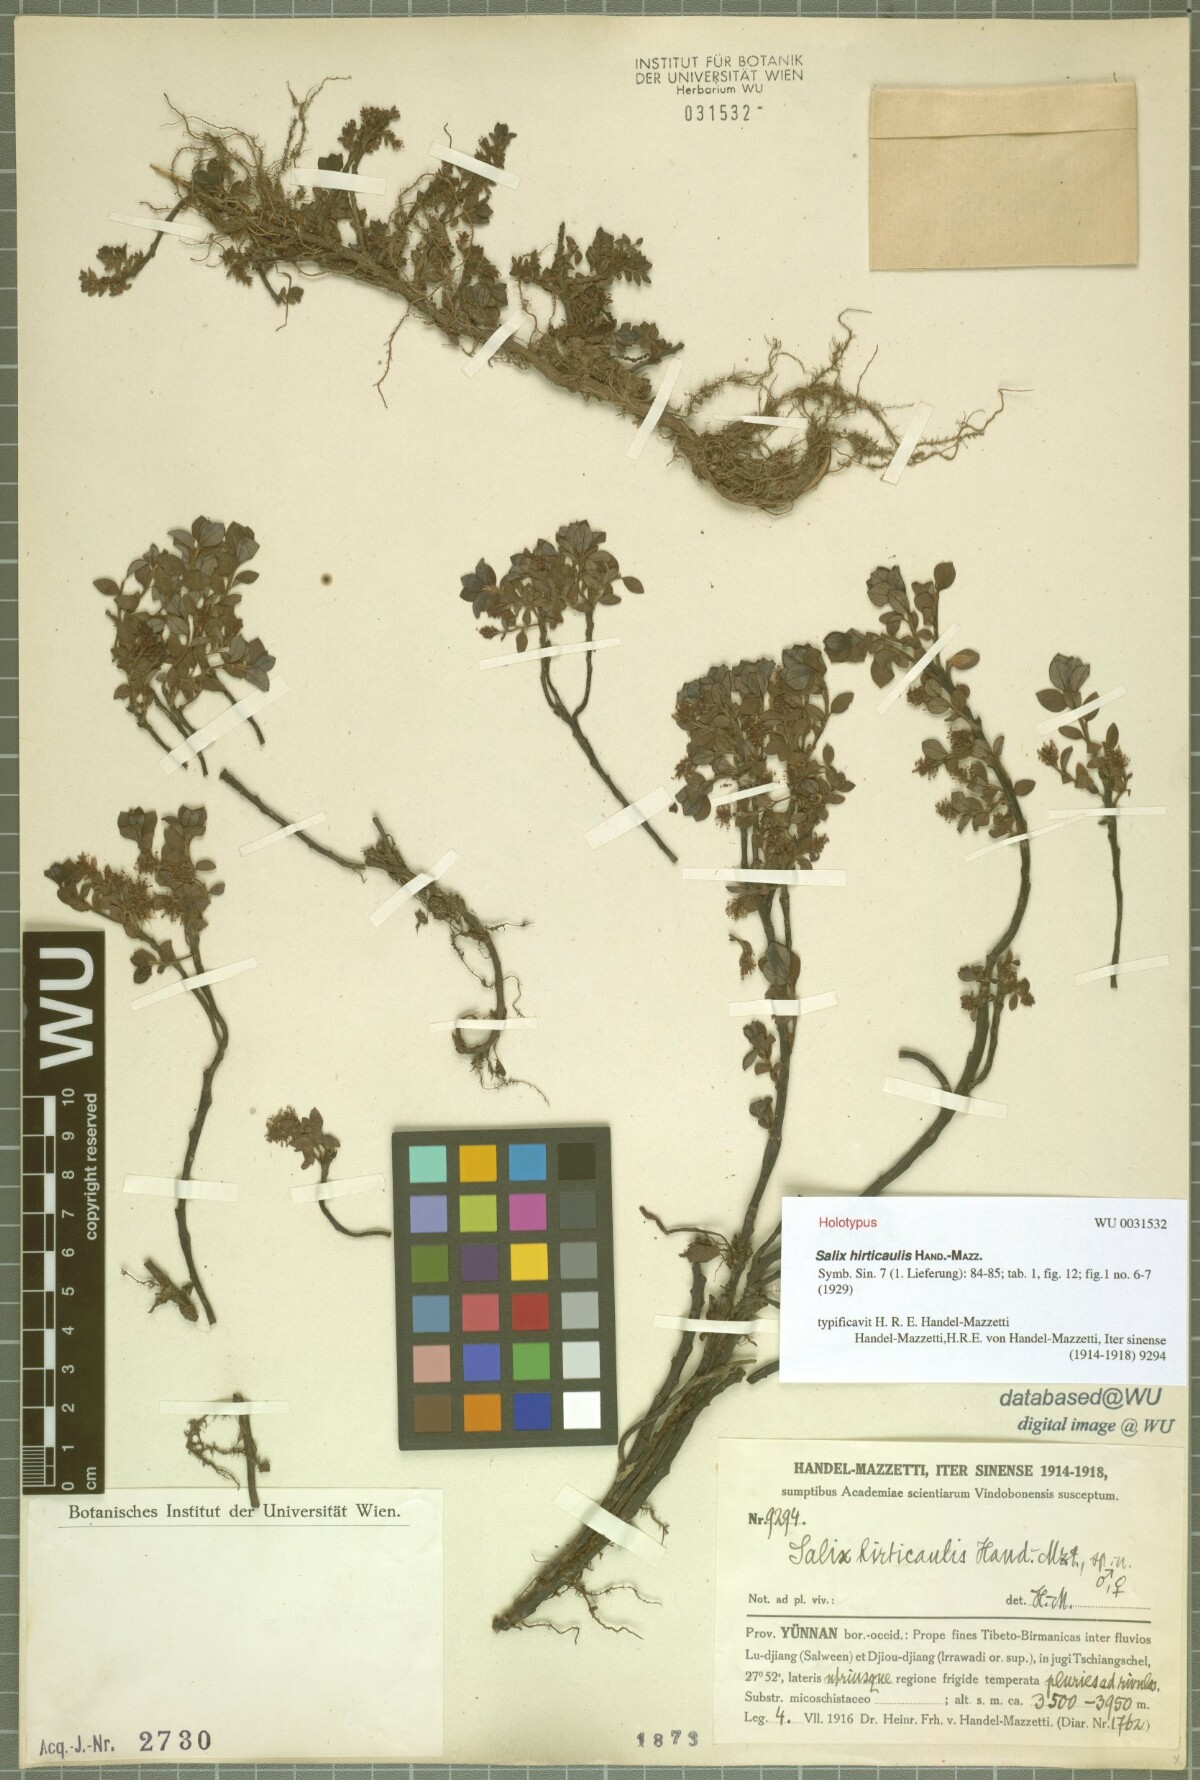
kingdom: Plantae
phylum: Tracheophyta
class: Magnoliopsida
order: Malpighiales
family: Salicaceae
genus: Salix
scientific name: Salix oreophila
